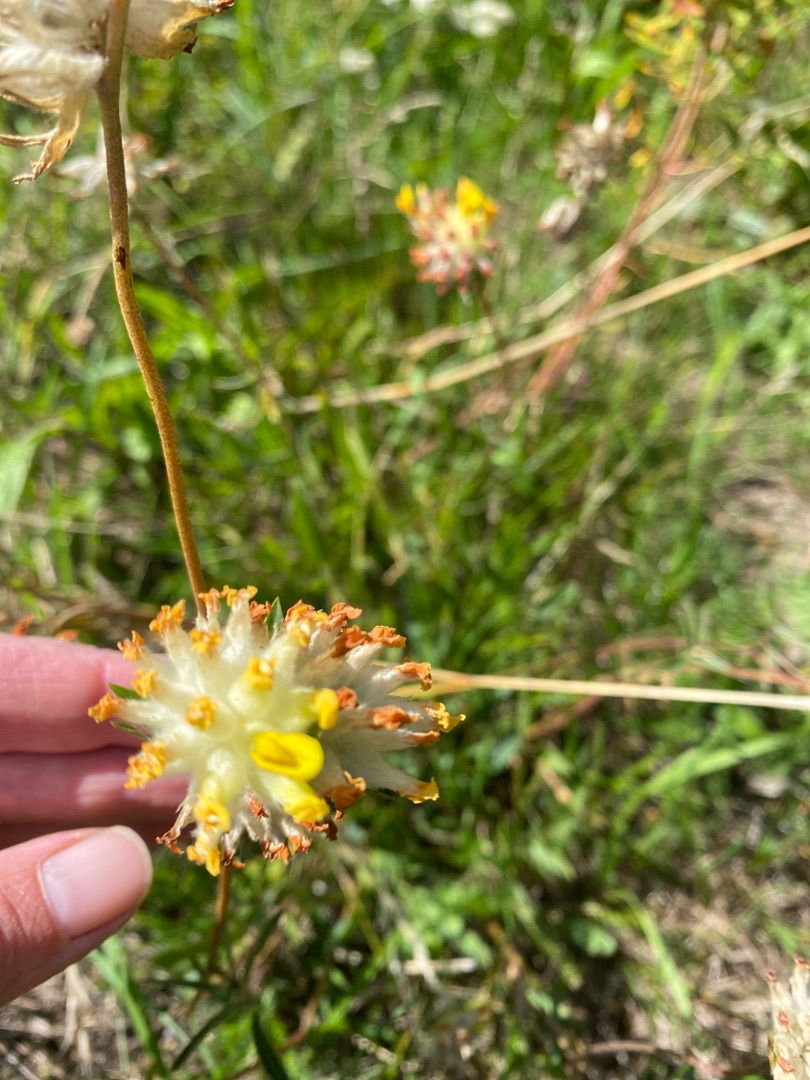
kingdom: Plantae
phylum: Tracheophyta
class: Magnoliopsida
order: Fabales
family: Fabaceae
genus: Anthyllis
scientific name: Anthyllis vulneraria
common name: Rundbælg
